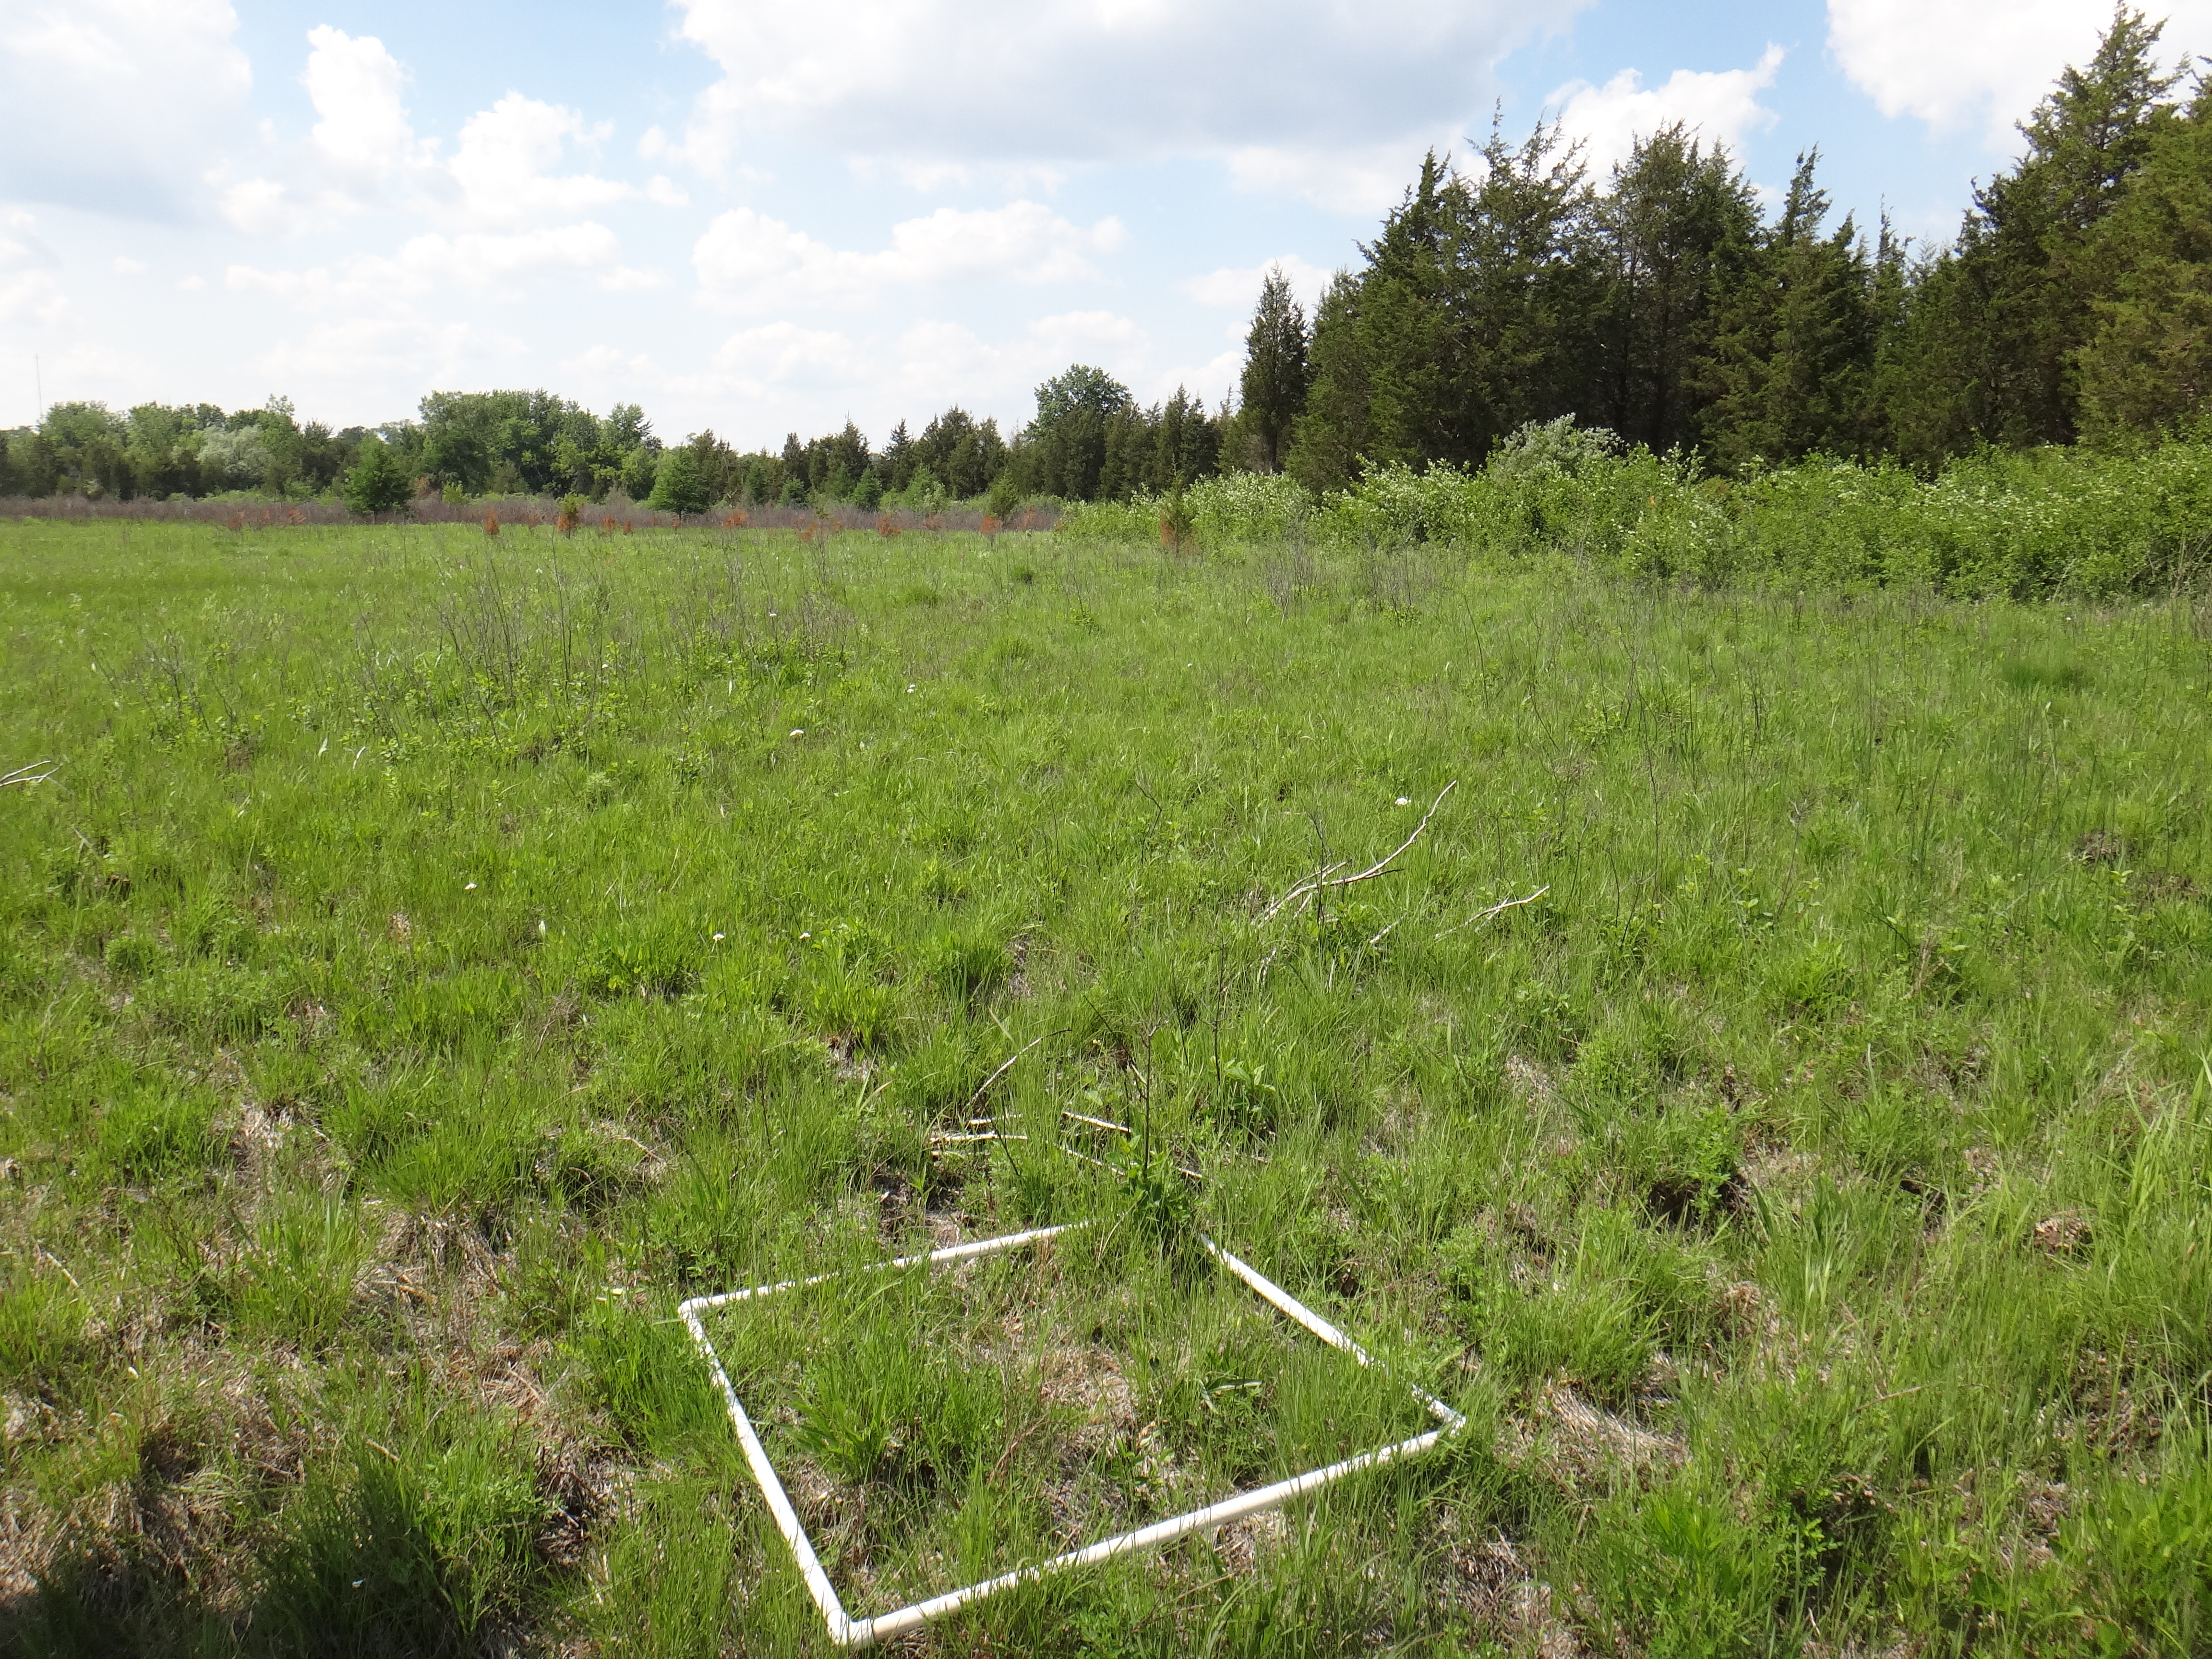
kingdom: Plantae
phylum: Tracheophyta
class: Magnoliopsida
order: Rosales
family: Rosaceae
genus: Dasiphora
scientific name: Dasiphora fruticosa
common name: Shrubby cinquefoil
